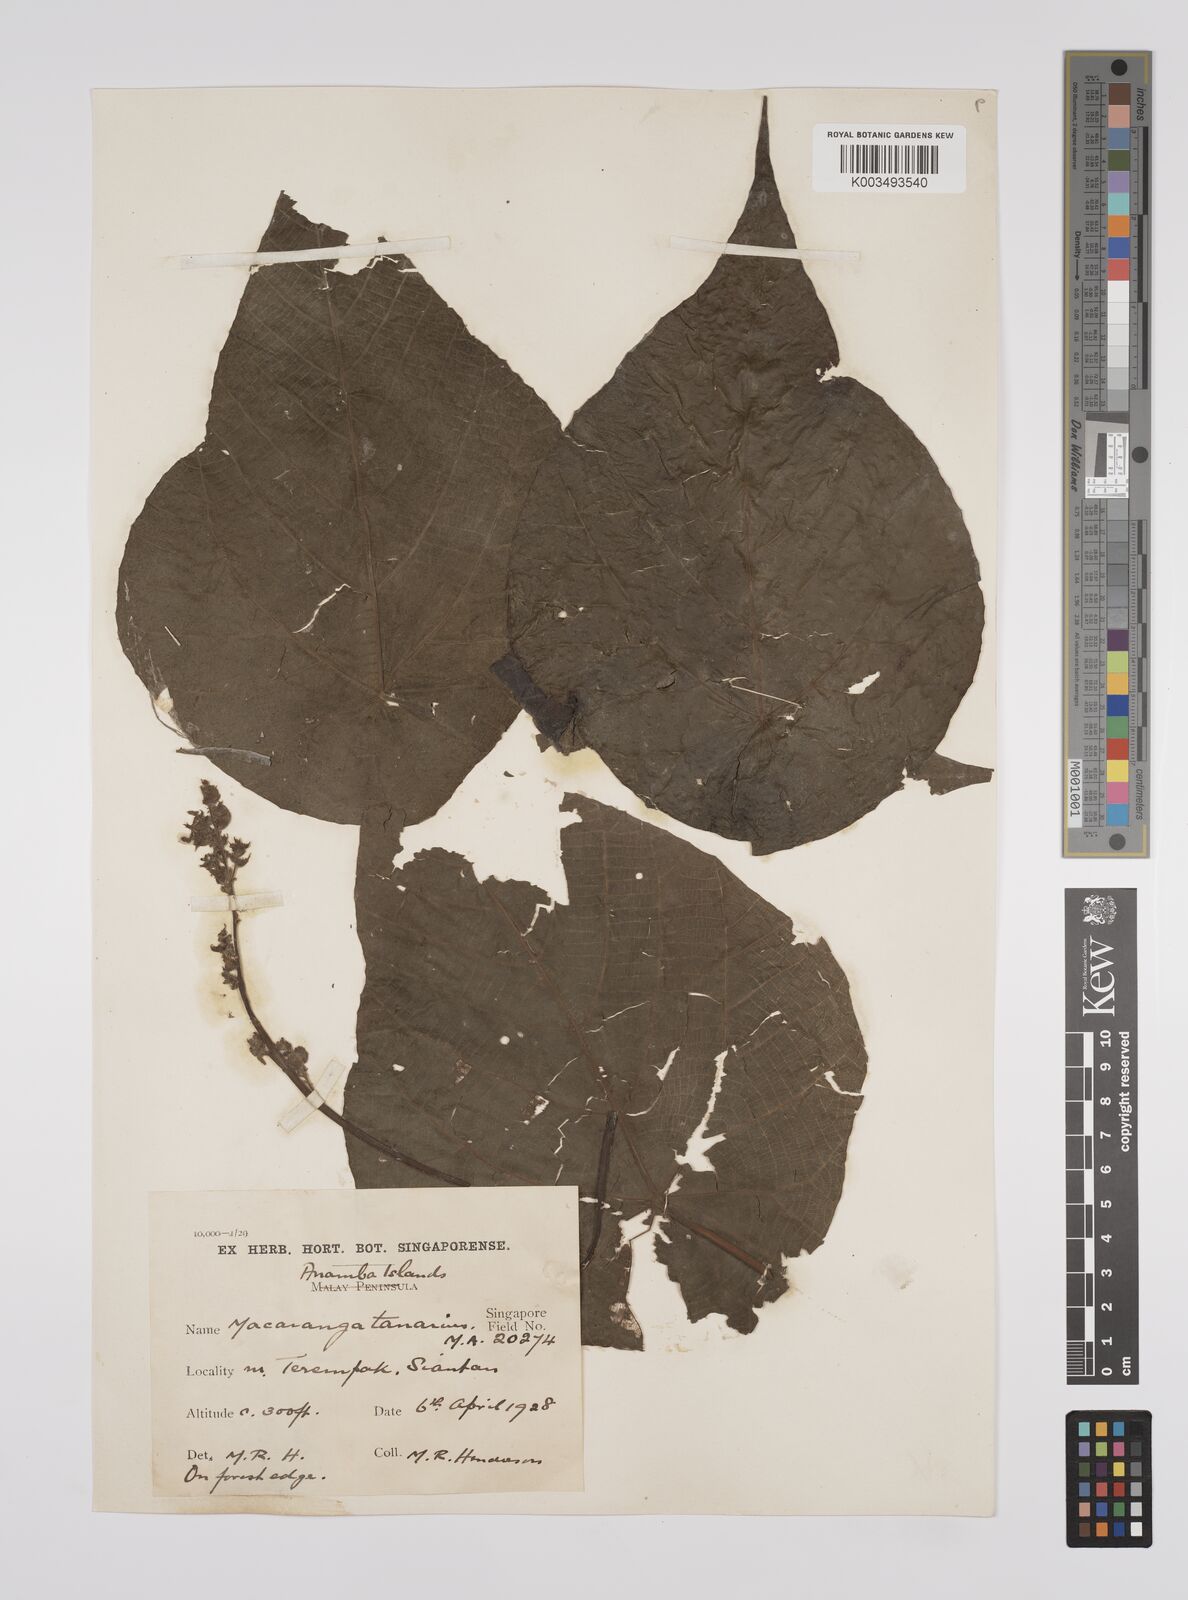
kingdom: Plantae
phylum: Tracheophyta
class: Magnoliopsida
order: Malpighiales
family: Euphorbiaceae
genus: Macaranga
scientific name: Macaranga tanarius
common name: Parasol leaf tree
